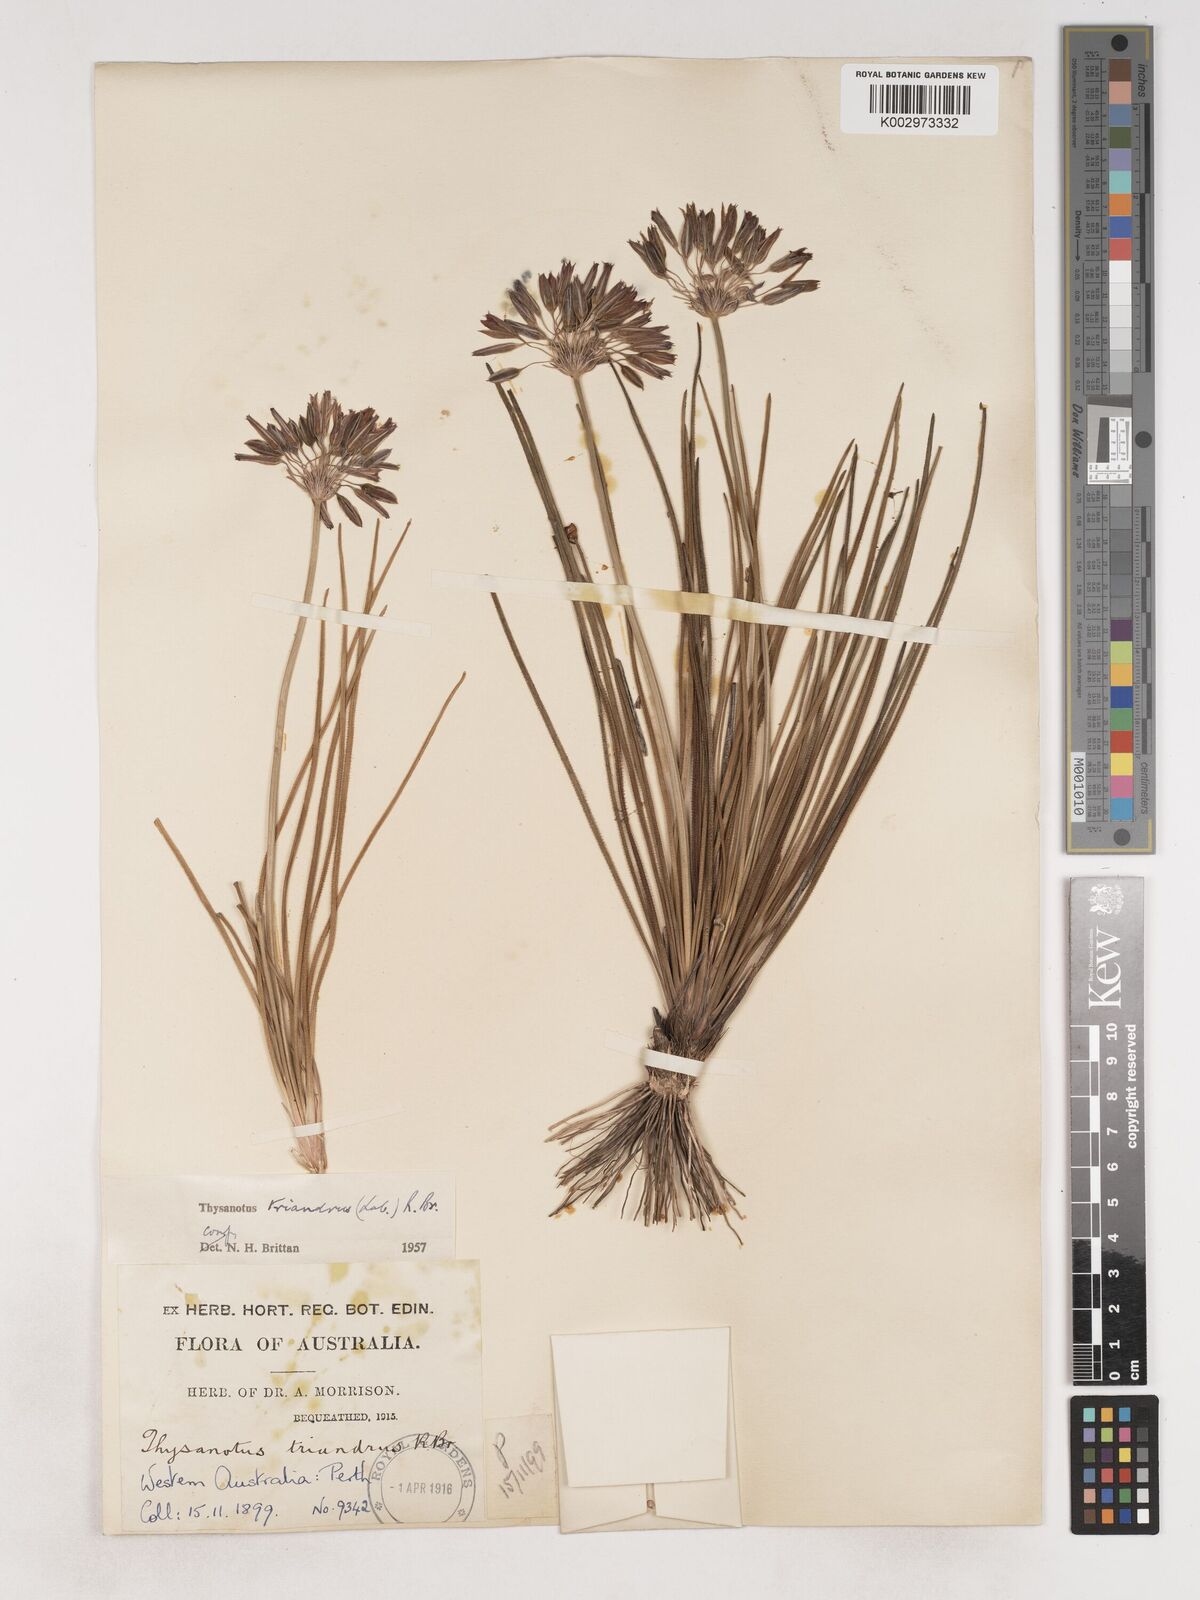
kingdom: Plantae
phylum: Tracheophyta
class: Liliopsida
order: Asparagales
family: Asparagaceae
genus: Thysanotus
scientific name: Thysanotus triandrus
